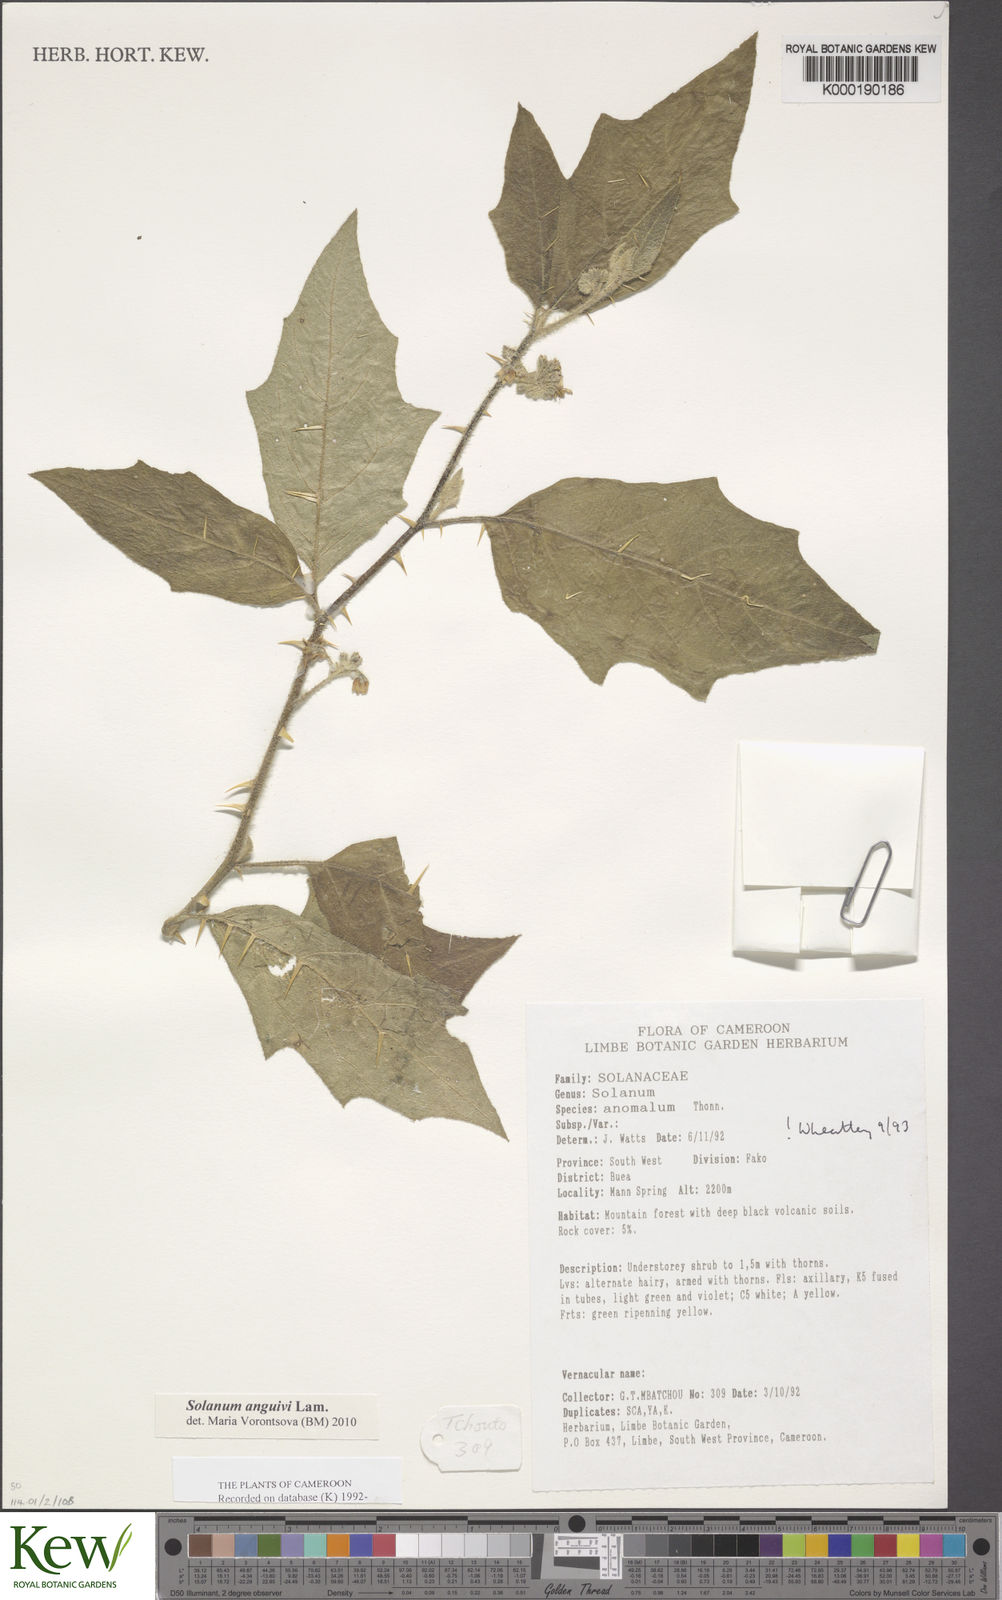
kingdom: Plantae
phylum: Tracheophyta
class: Magnoliopsida
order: Solanales
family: Solanaceae
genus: Solanum
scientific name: Solanum anomalum
